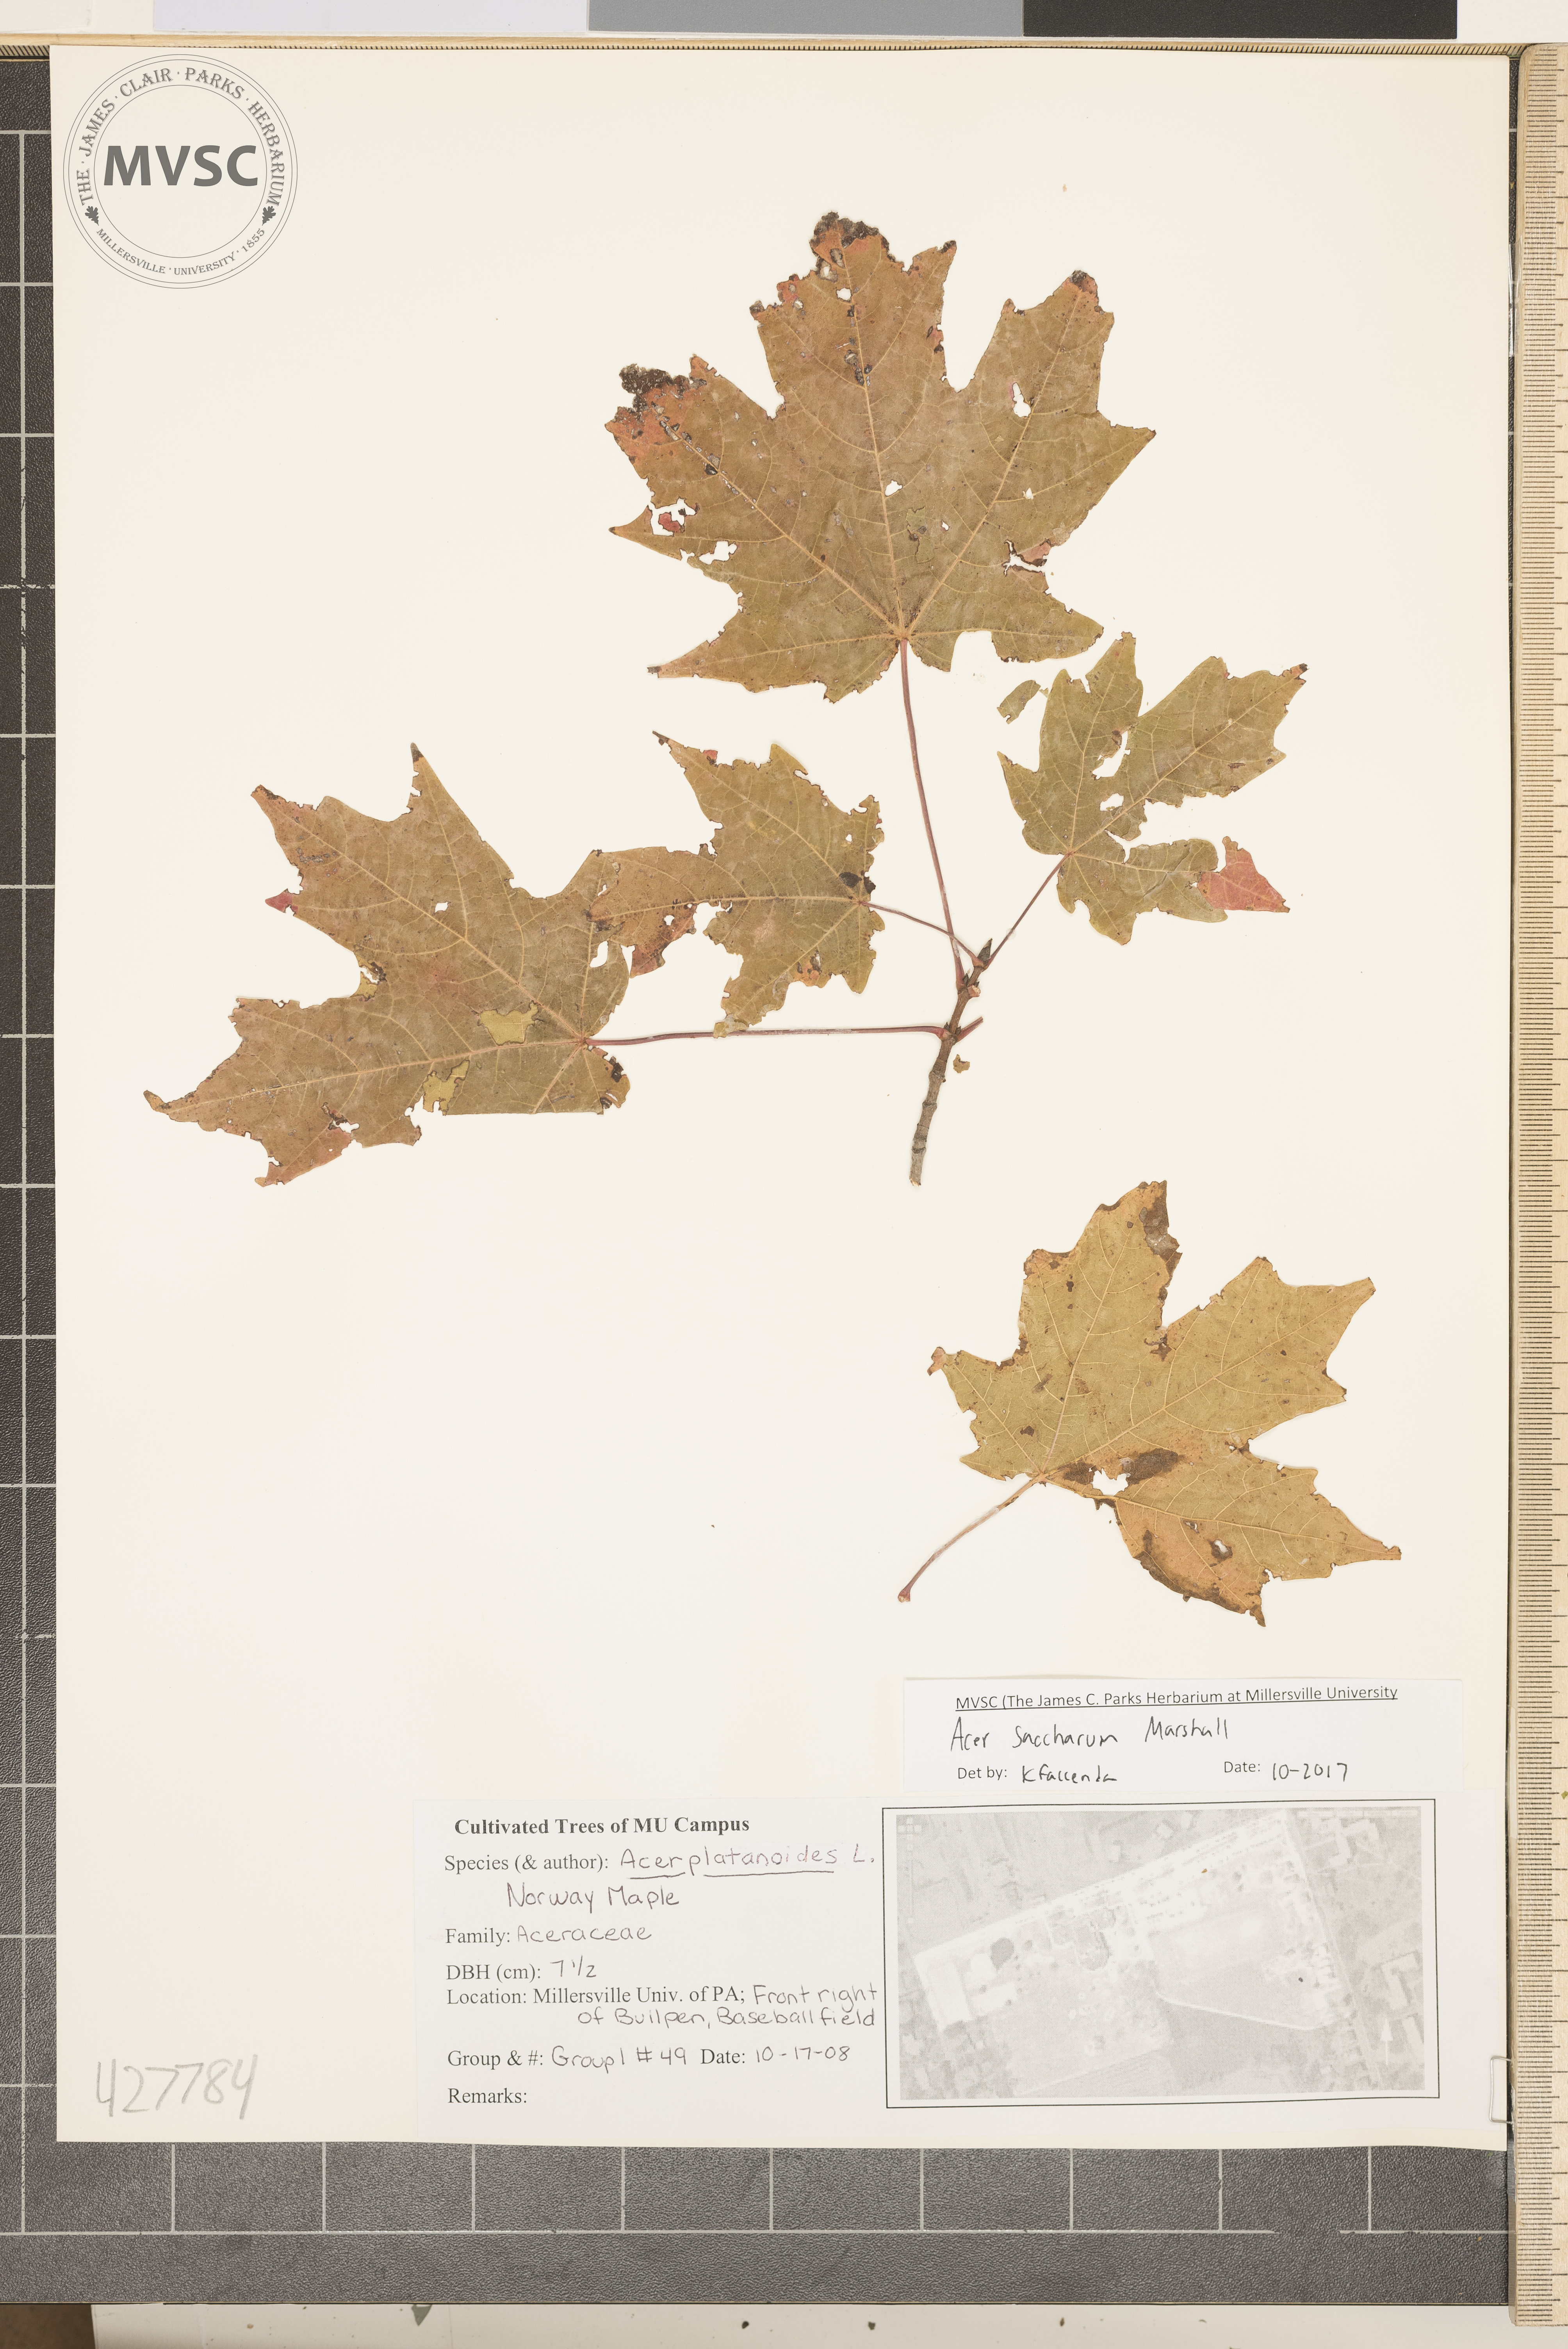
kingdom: Plantae
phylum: Tracheophyta
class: Magnoliopsida
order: Sapindales
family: Sapindaceae
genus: Acer
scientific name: Acer saccharum
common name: Sugar maple
